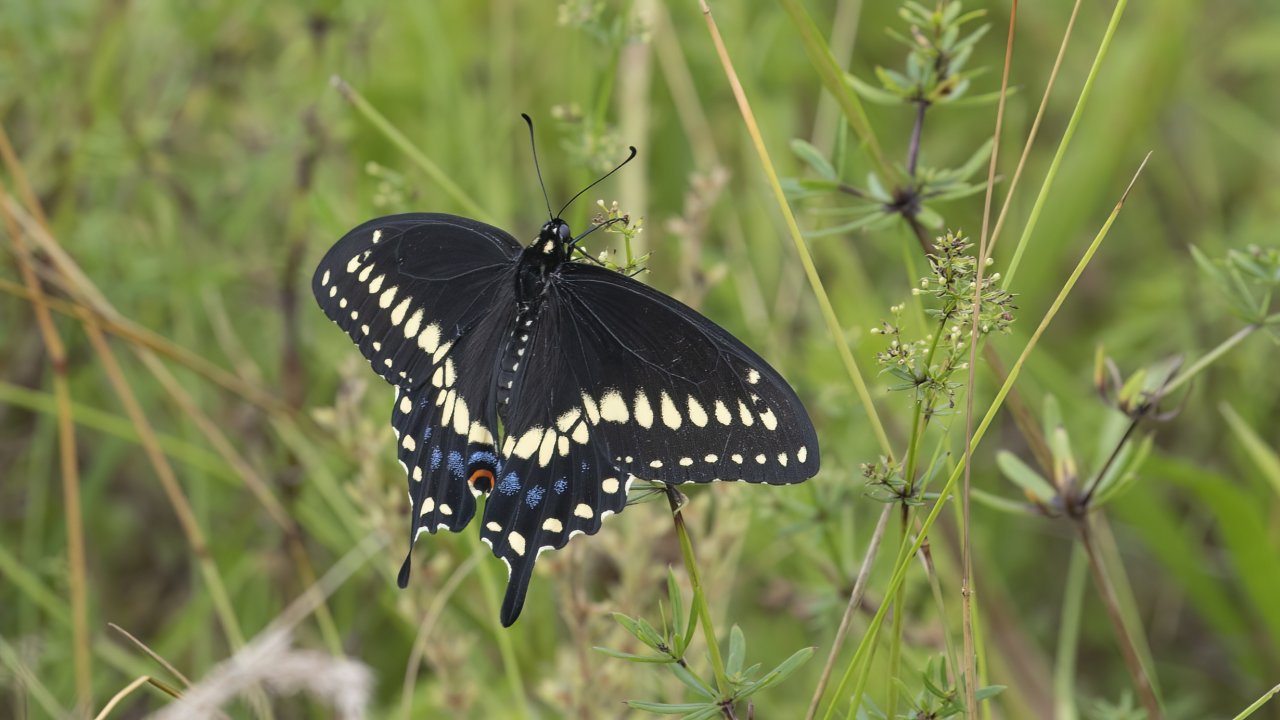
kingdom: Animalia
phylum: Arthropoda
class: Insecta
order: Lepidoptera
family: Papilionidae
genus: Papilio
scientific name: Papilio polyxenes
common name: Black Swallowtail
